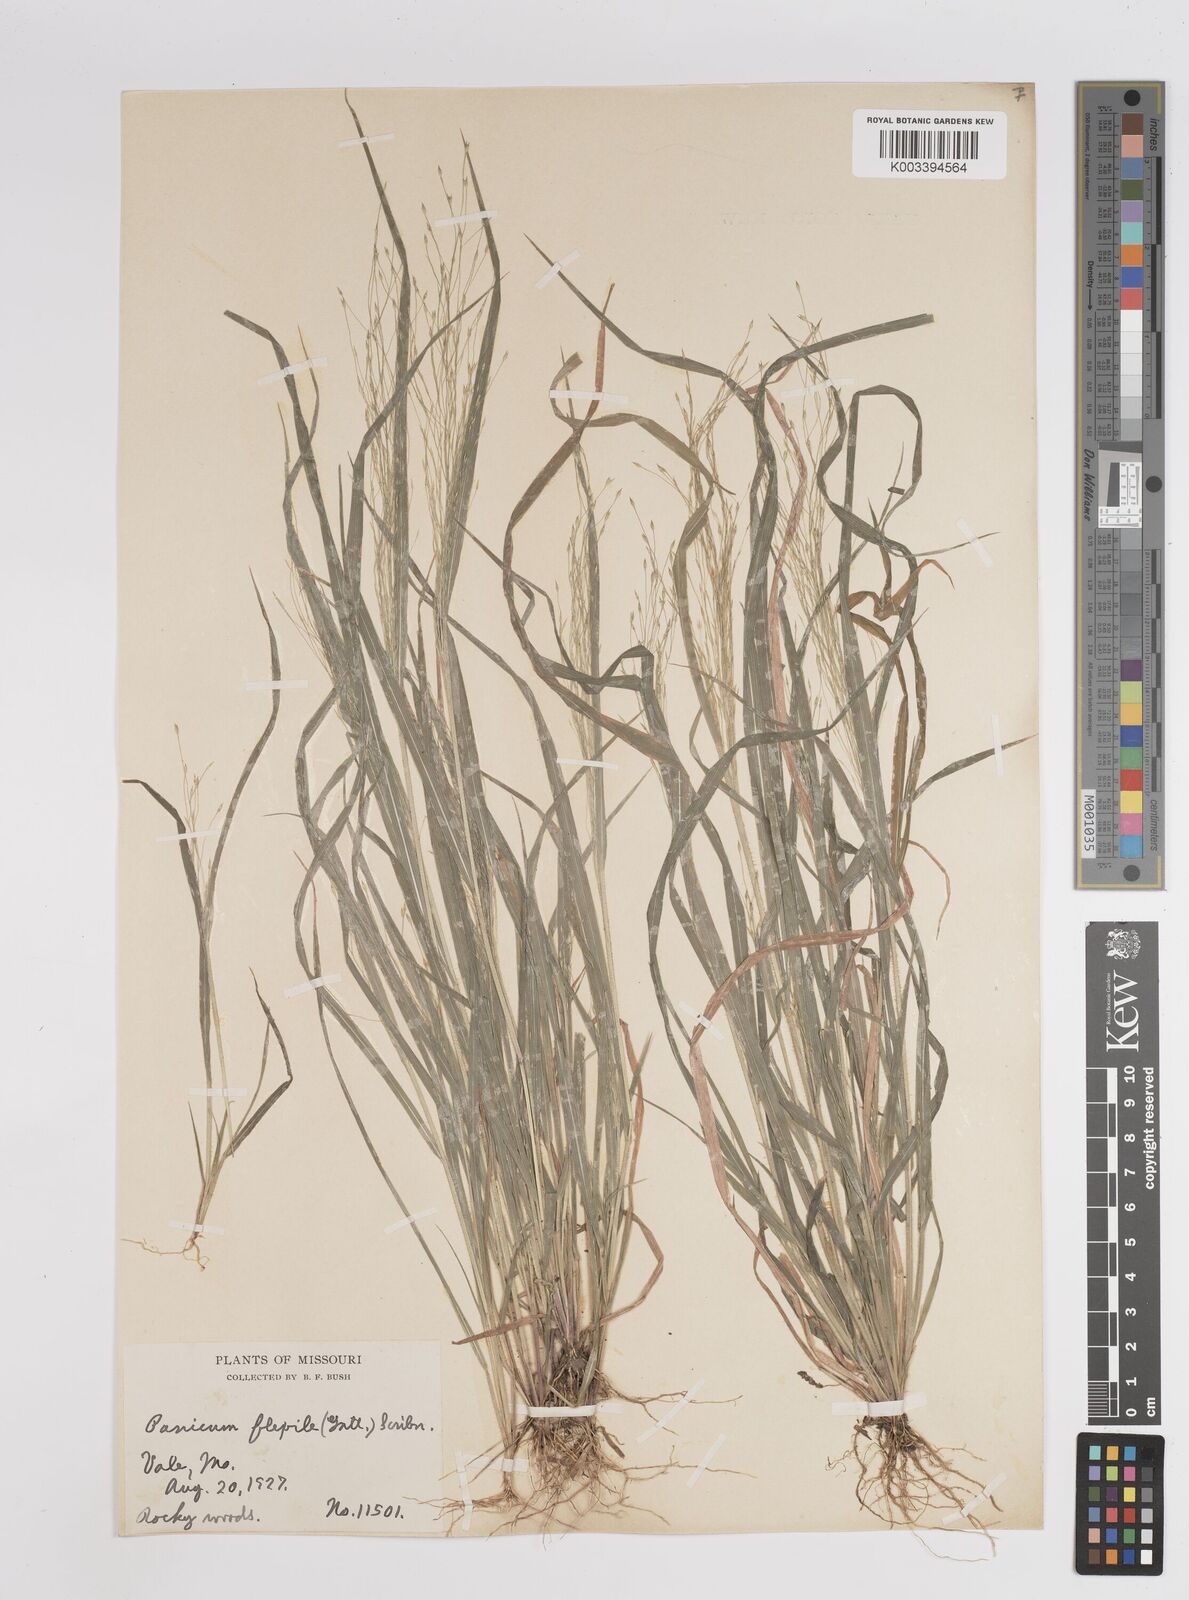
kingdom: Plantae
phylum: Tracheophyta
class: Liliopsida
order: Poales
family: Poaceae
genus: Panicum
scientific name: Panicum flexile
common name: Wiry panicgrass
